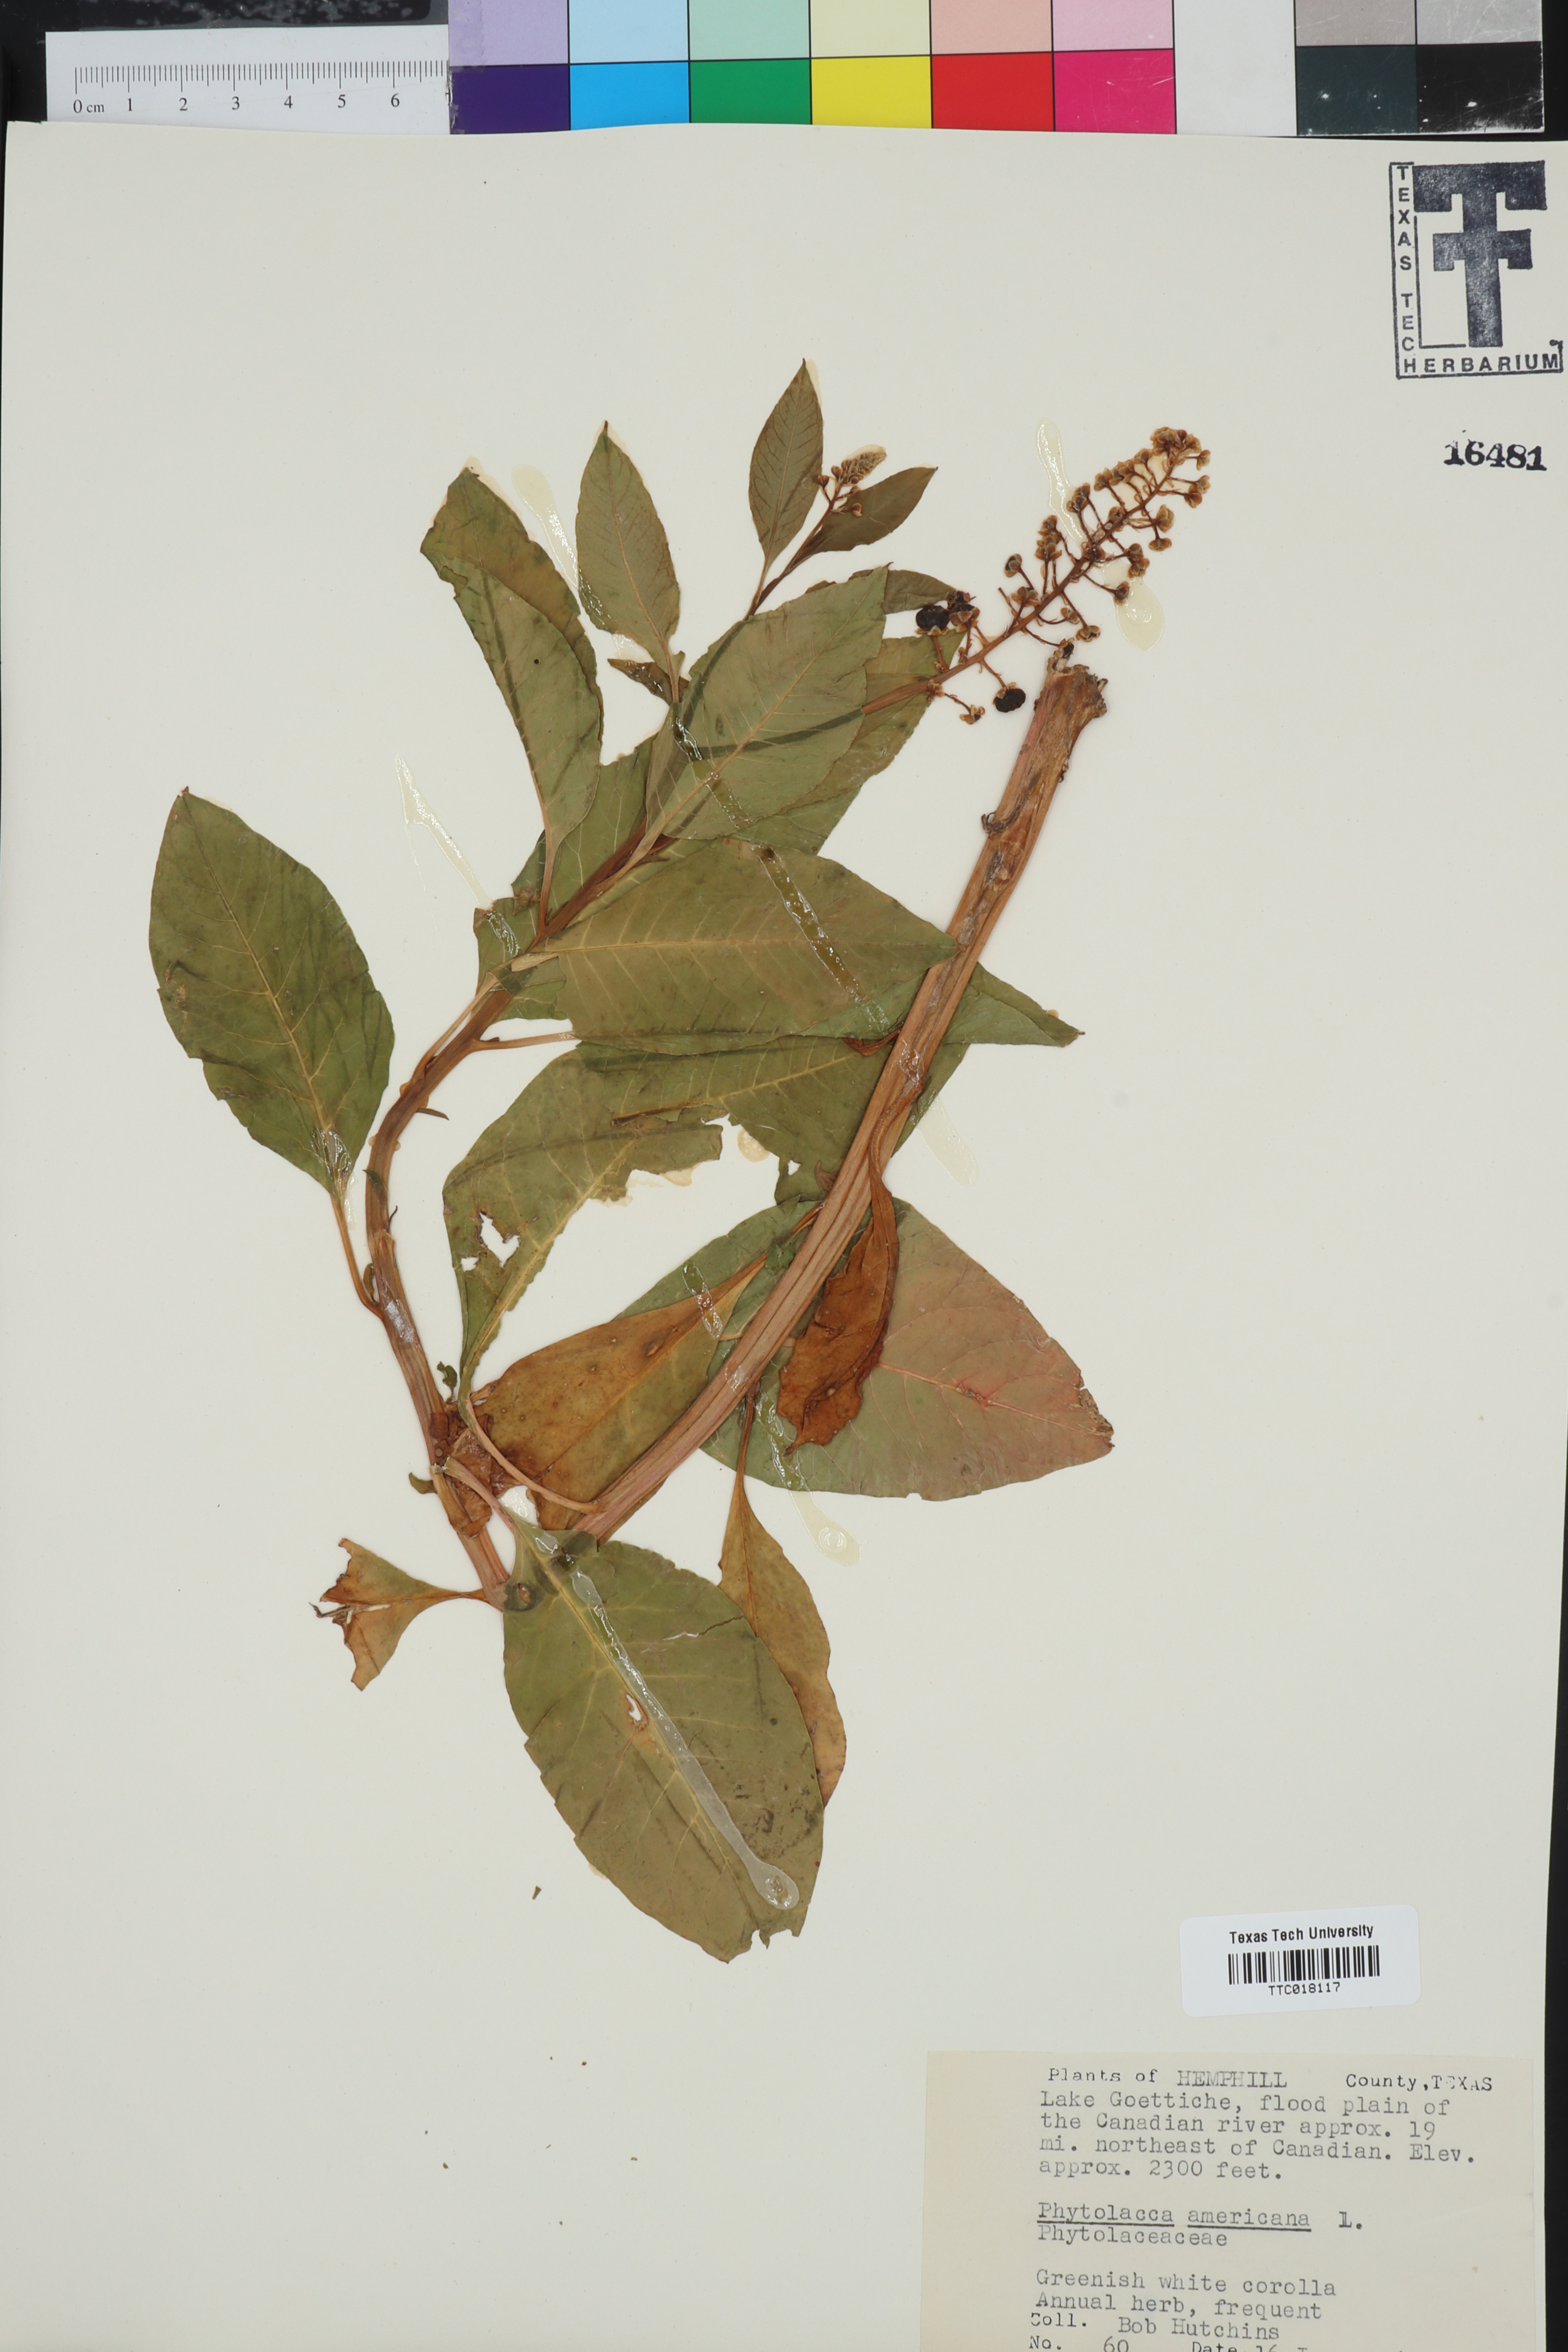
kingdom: Plantae
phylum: Tracheophyta
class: Magnoliopsida
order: Caryophyllales
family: Phytolaccaceae
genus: Phytolacca
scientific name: Phytolacca americana
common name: American pokeweed
